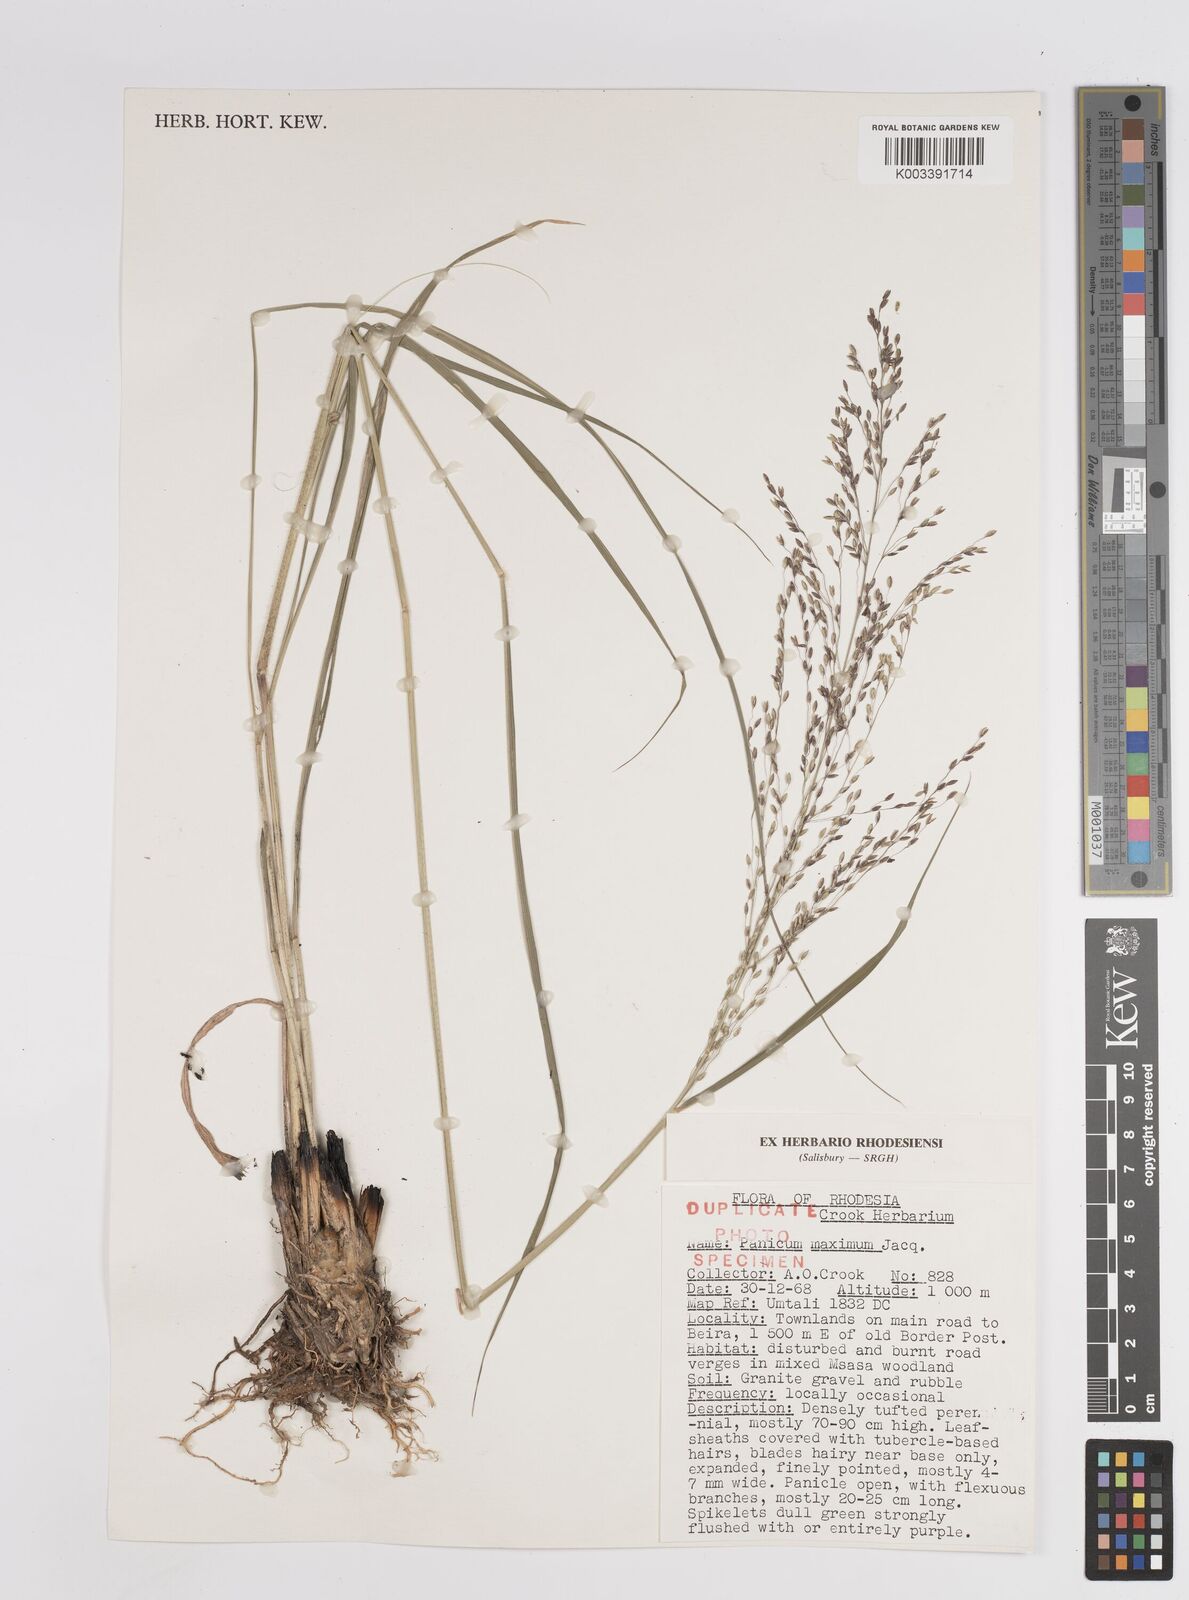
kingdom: Plantae
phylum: Tracheophyta
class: Liliopsida
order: Poales
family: Poaceae
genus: Megathyrsus
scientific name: Megathyrsus maximus
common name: Guineagrass
